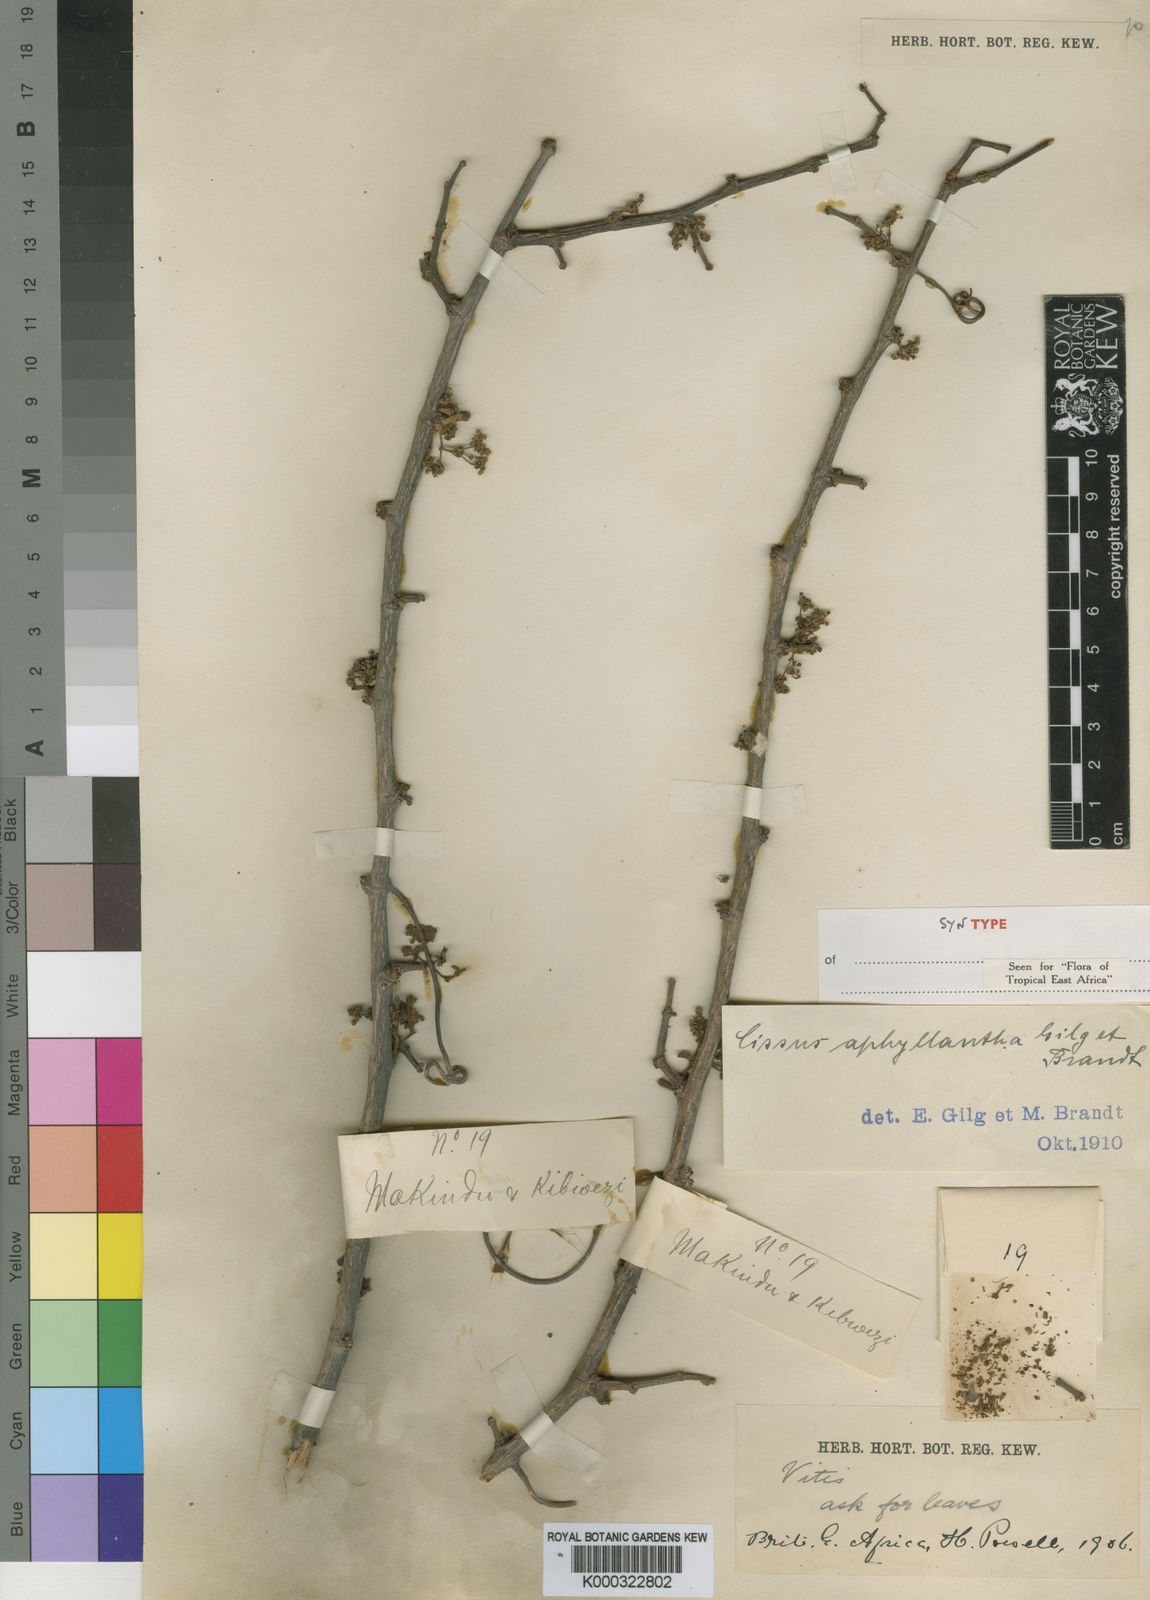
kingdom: Plantae
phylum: Tracheophyta
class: Magnoliopsida
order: Vitales
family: Vitaceae
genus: Cissus
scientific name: Cissus aphyllantha
